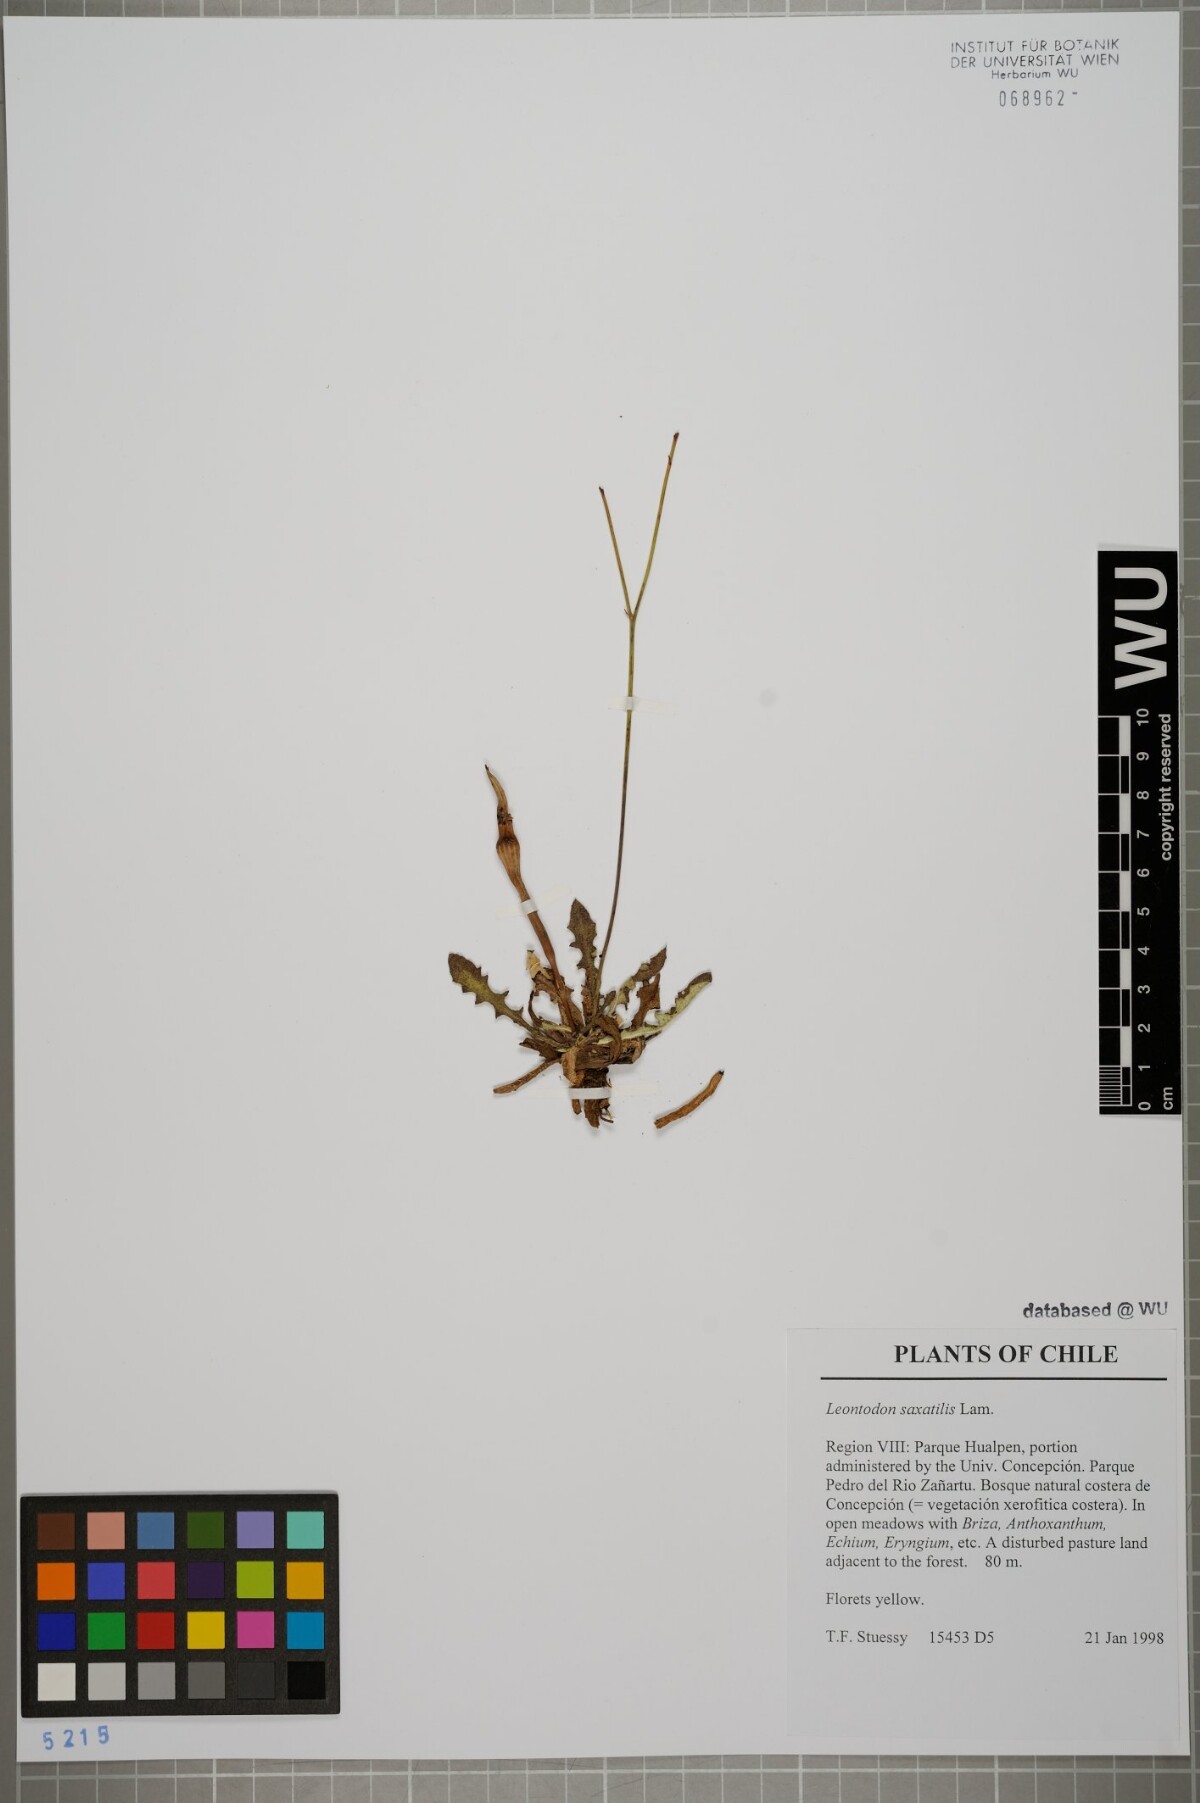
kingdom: Plantae
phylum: Tracheophyta
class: Magnoliopsida
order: Asterales
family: Asteraceae
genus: Thrincia
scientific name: Thrincia saxatilis
